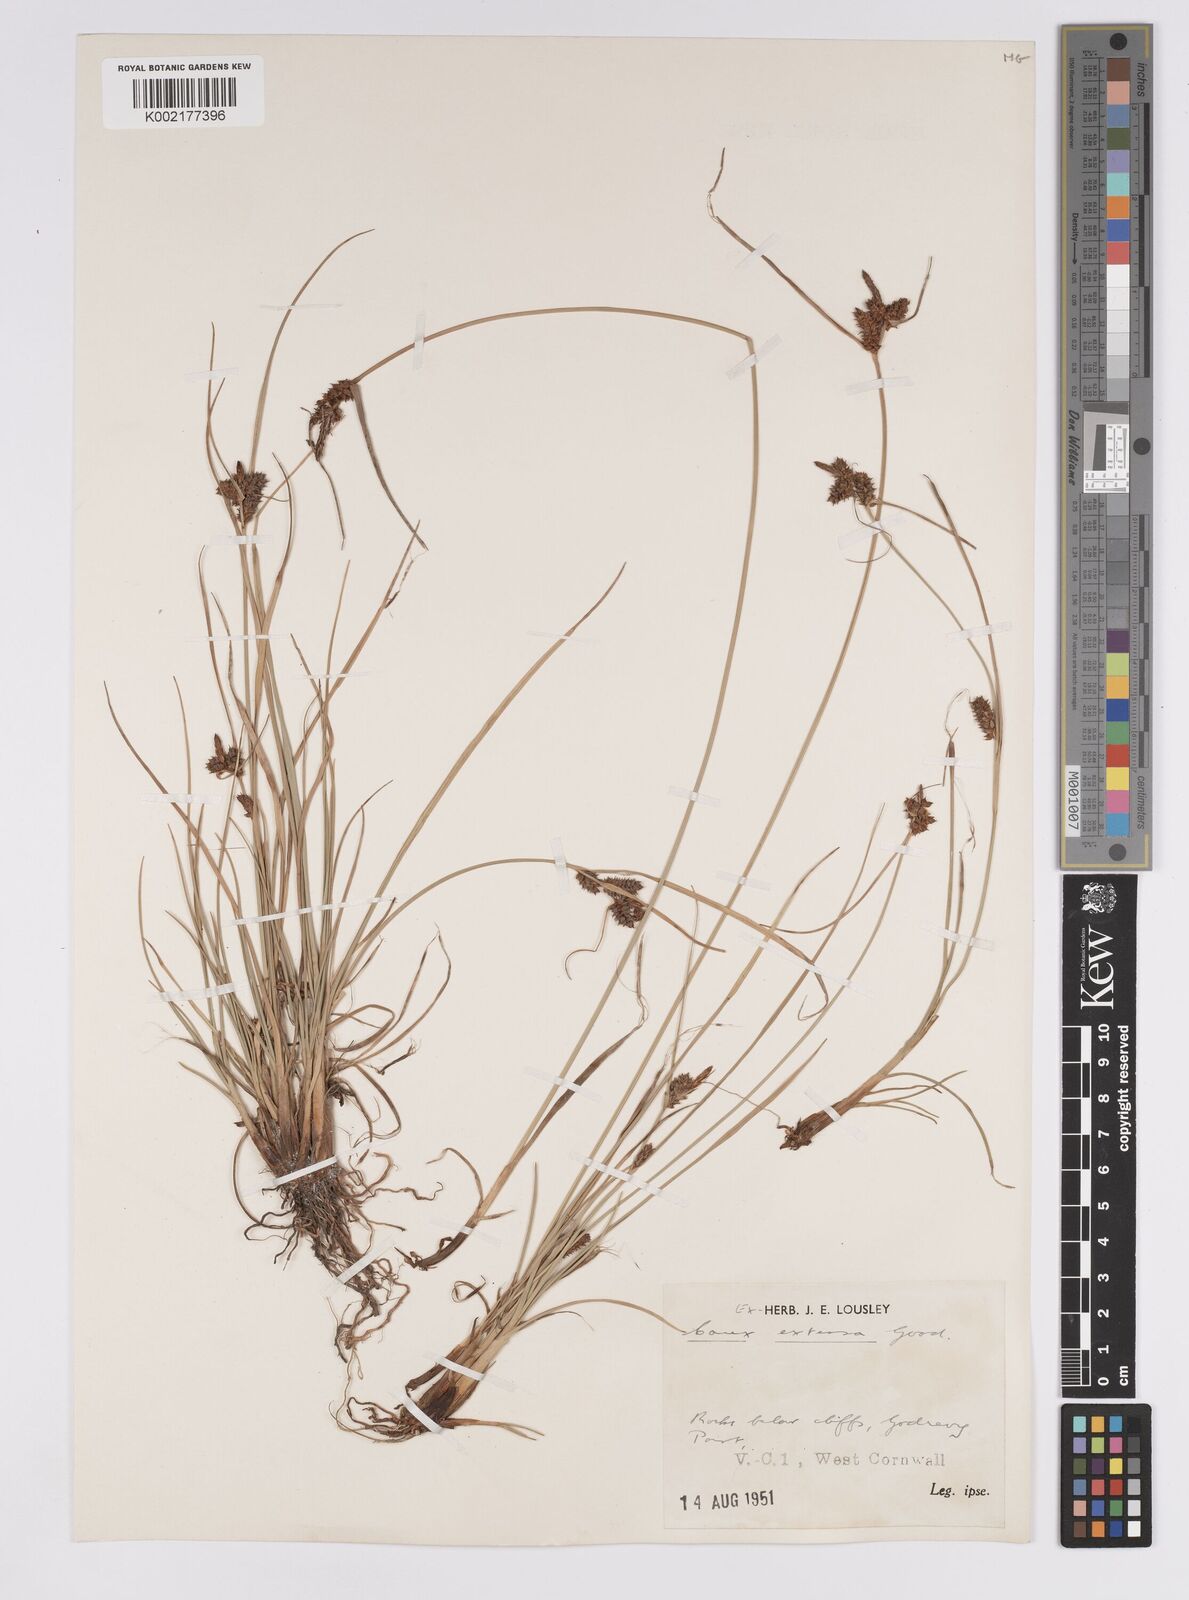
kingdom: Plantae
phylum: Tracheophyta
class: Liliopsida
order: Poales
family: Cyperaceae
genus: Carex
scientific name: Carex extensa
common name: Long-bracted sedge
